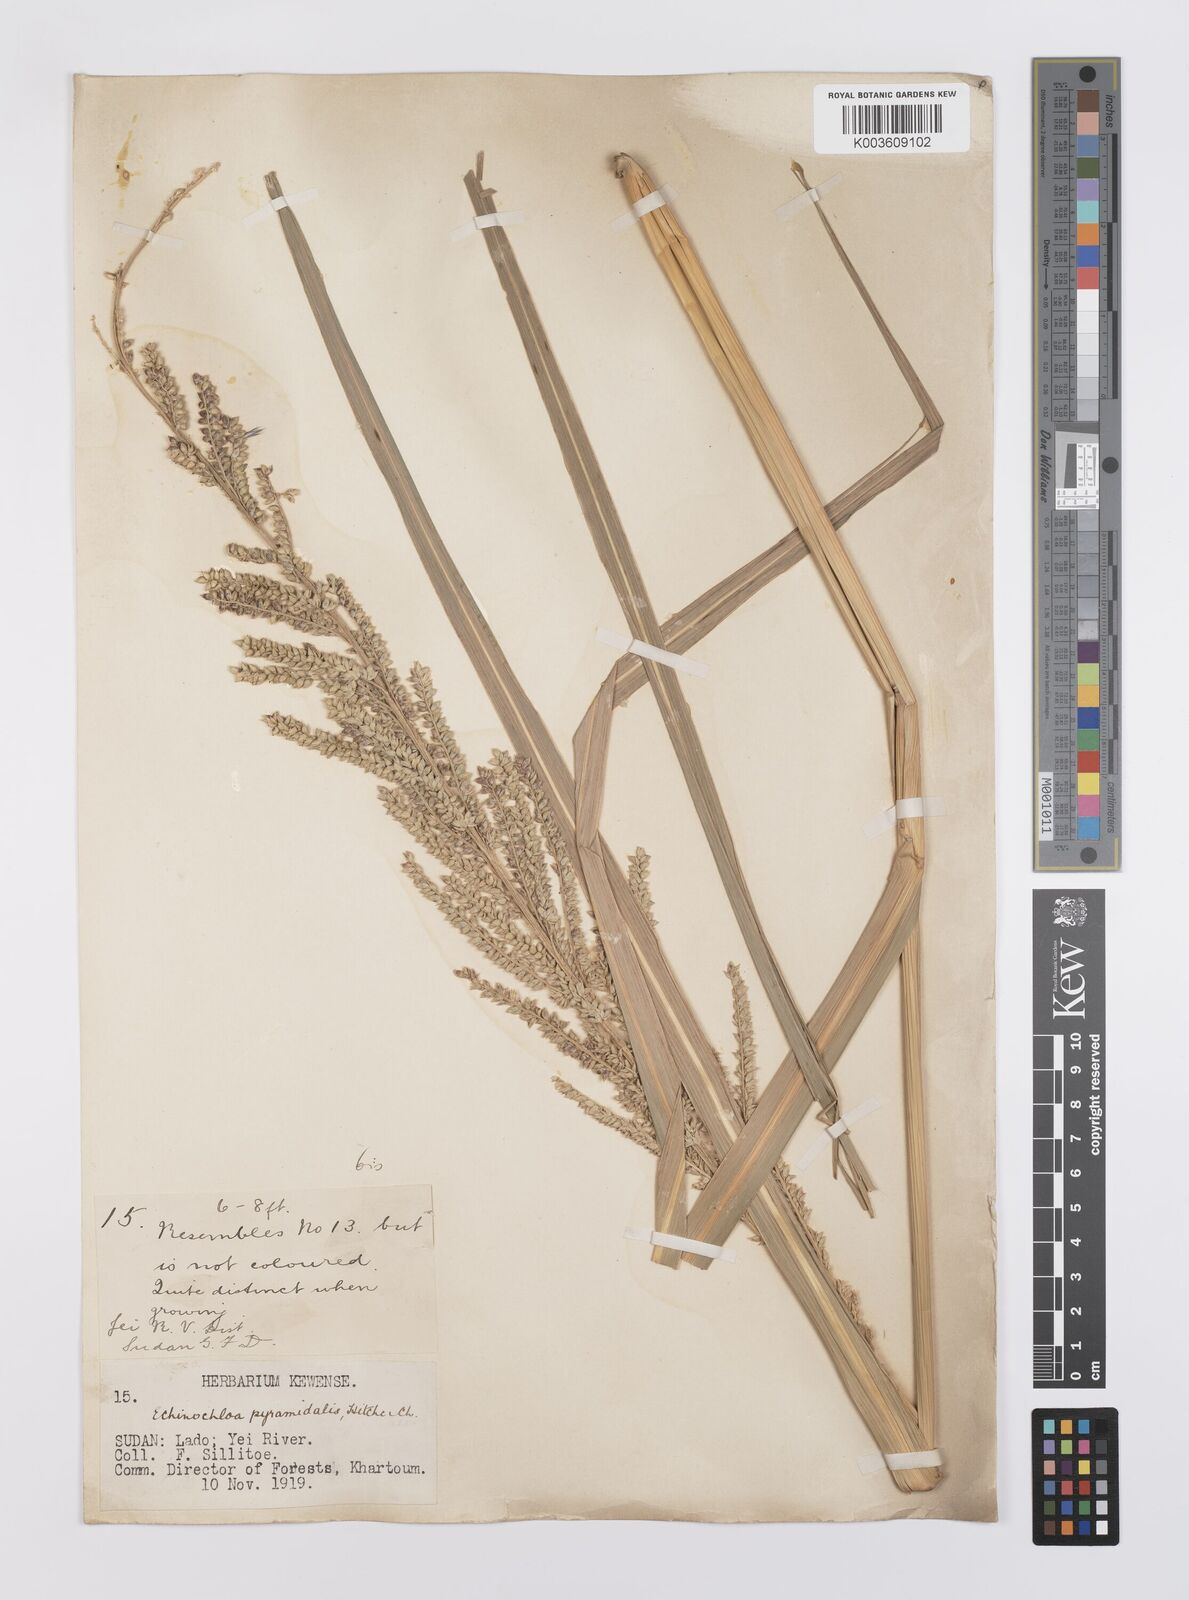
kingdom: Plantae
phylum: Tracheophyta
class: Liliopsida
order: Poales
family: Poaceae
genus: Echinochloa
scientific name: Echinochloa pyramidalis
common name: Antelope grass
